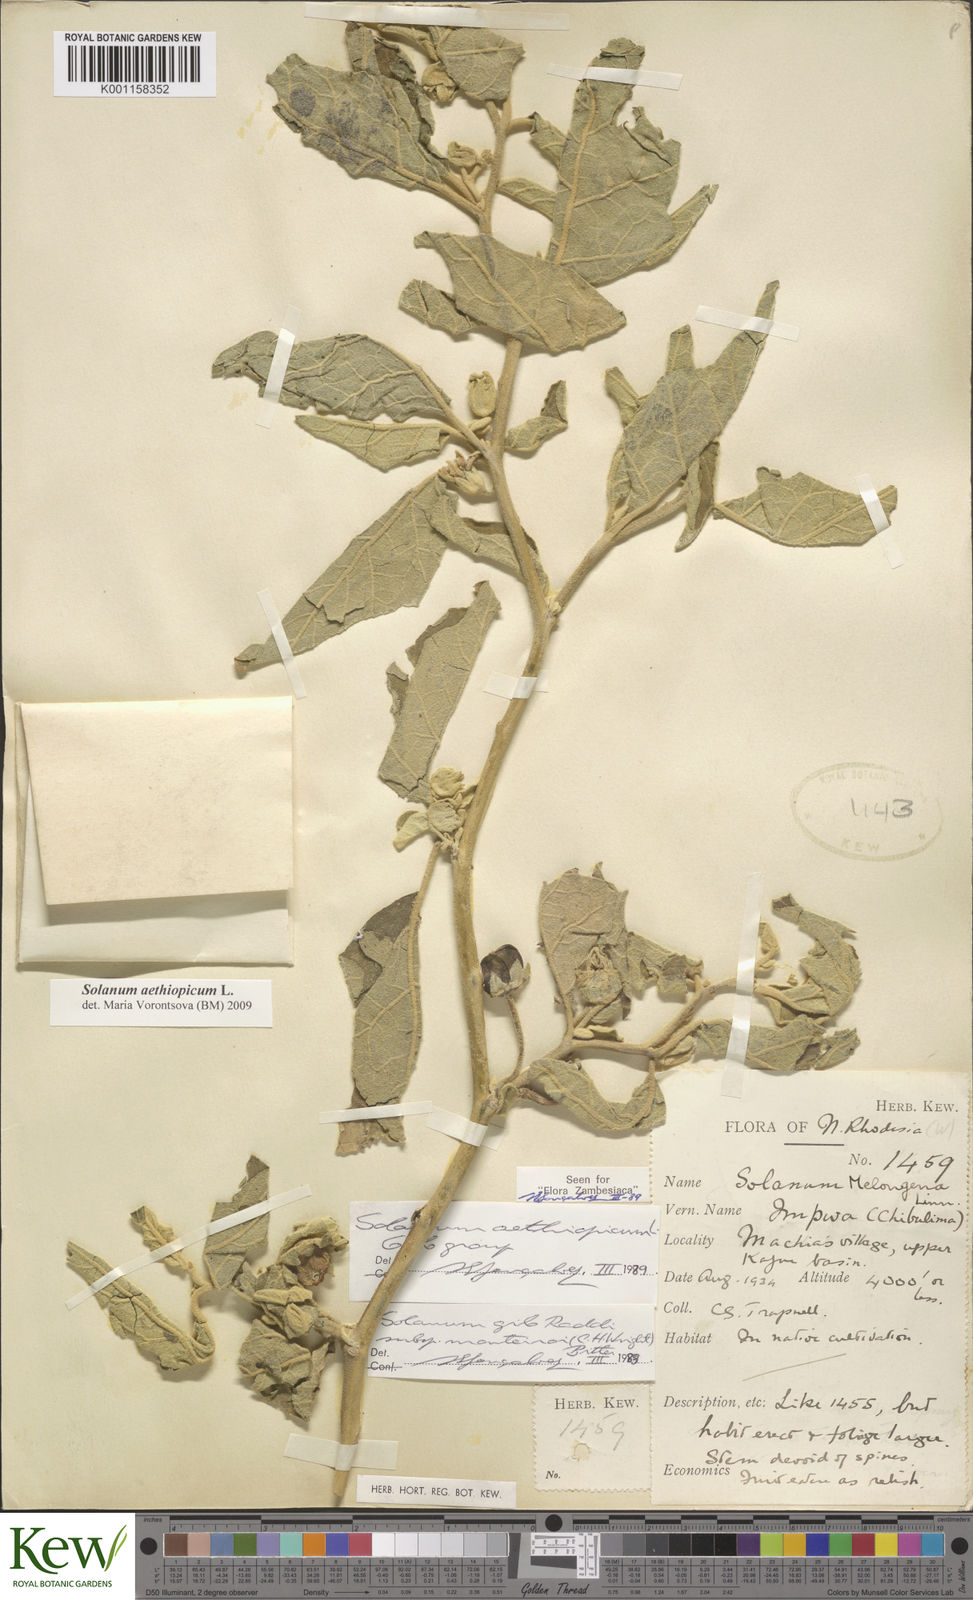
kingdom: Plantae
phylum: Tracheophyta
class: Magnoliopsida
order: Solanales
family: Solanaceae
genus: Solanum
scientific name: Solanum aethiopicum
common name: Gilo
